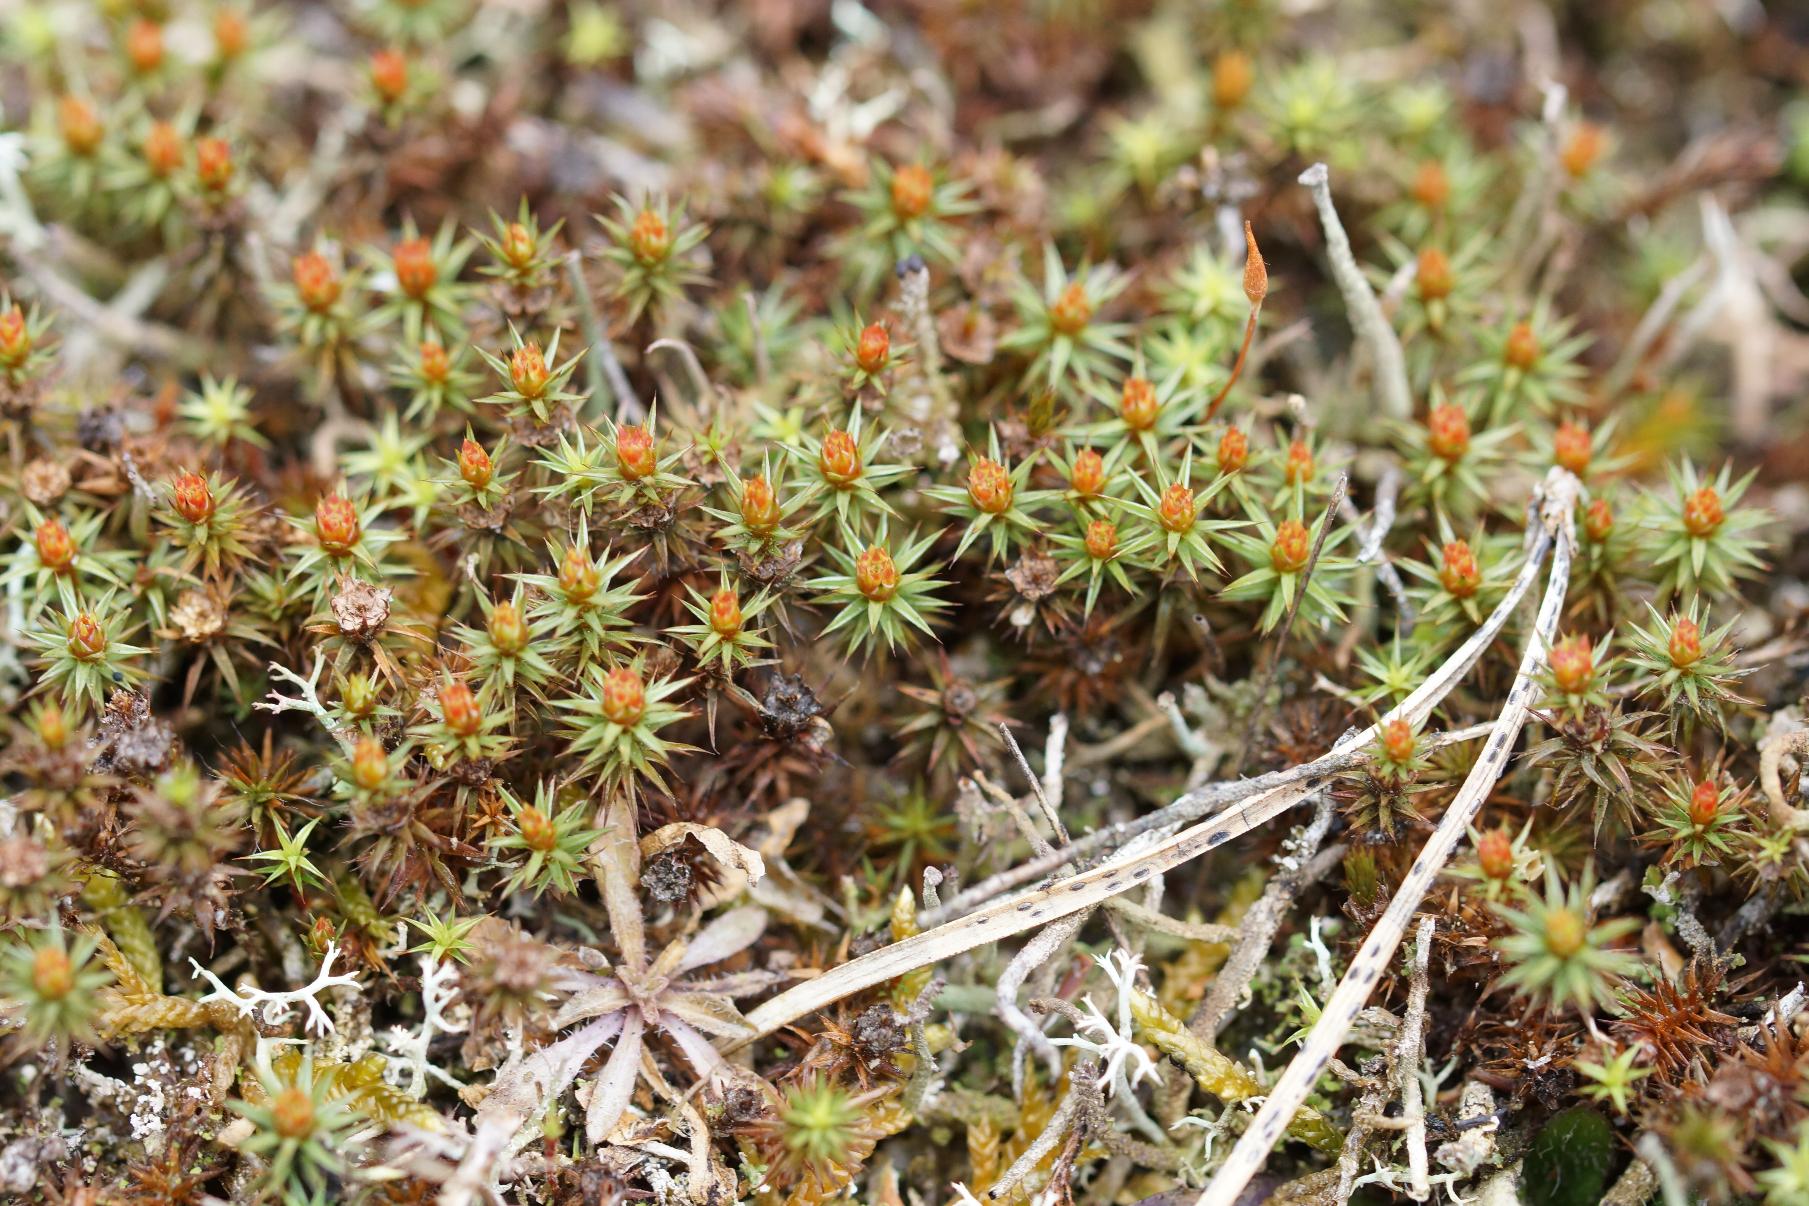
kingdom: Plantae
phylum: Bryophyta
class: Polytrichopsida
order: Polytrichales
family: Polytrichaceae
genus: Polytrichum
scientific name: Polytrichum juniperinum
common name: Ene-jomfruhår
